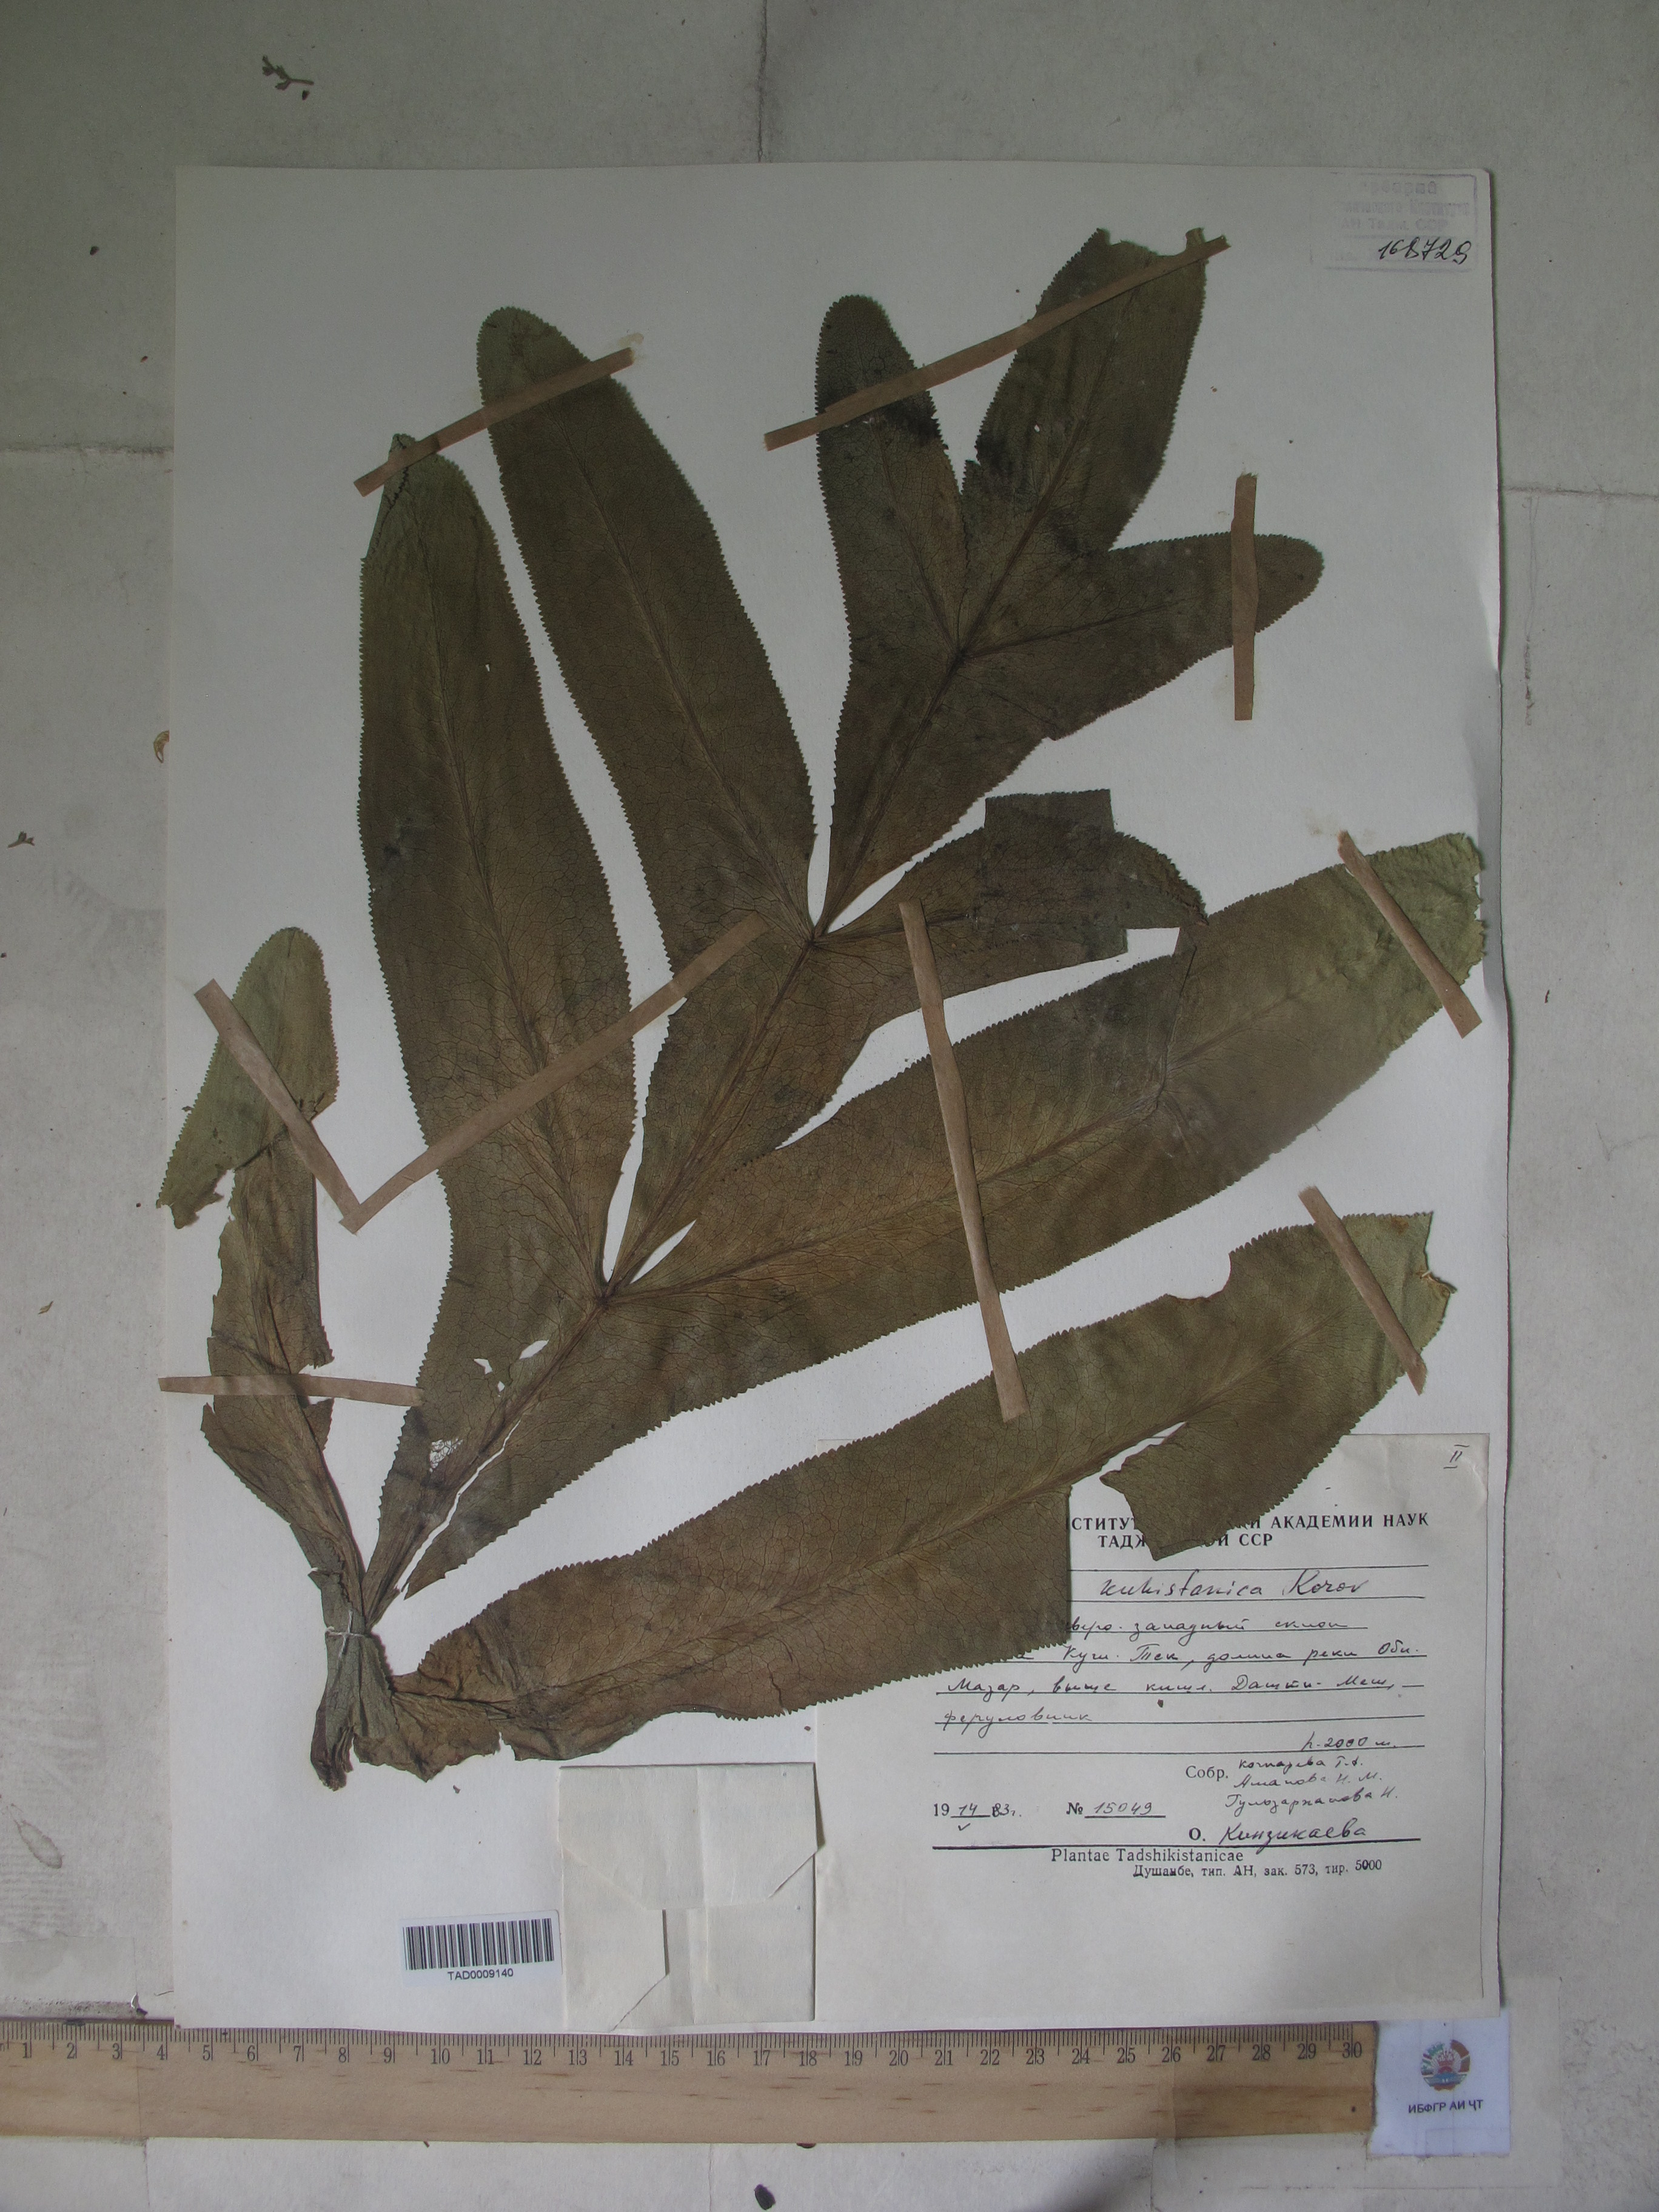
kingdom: Plantae
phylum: Tracheophyta
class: Magnoliopsida
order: Apiales
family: Apiaceae
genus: Ferula
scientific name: Ferula kuhistanica
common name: Kamol
